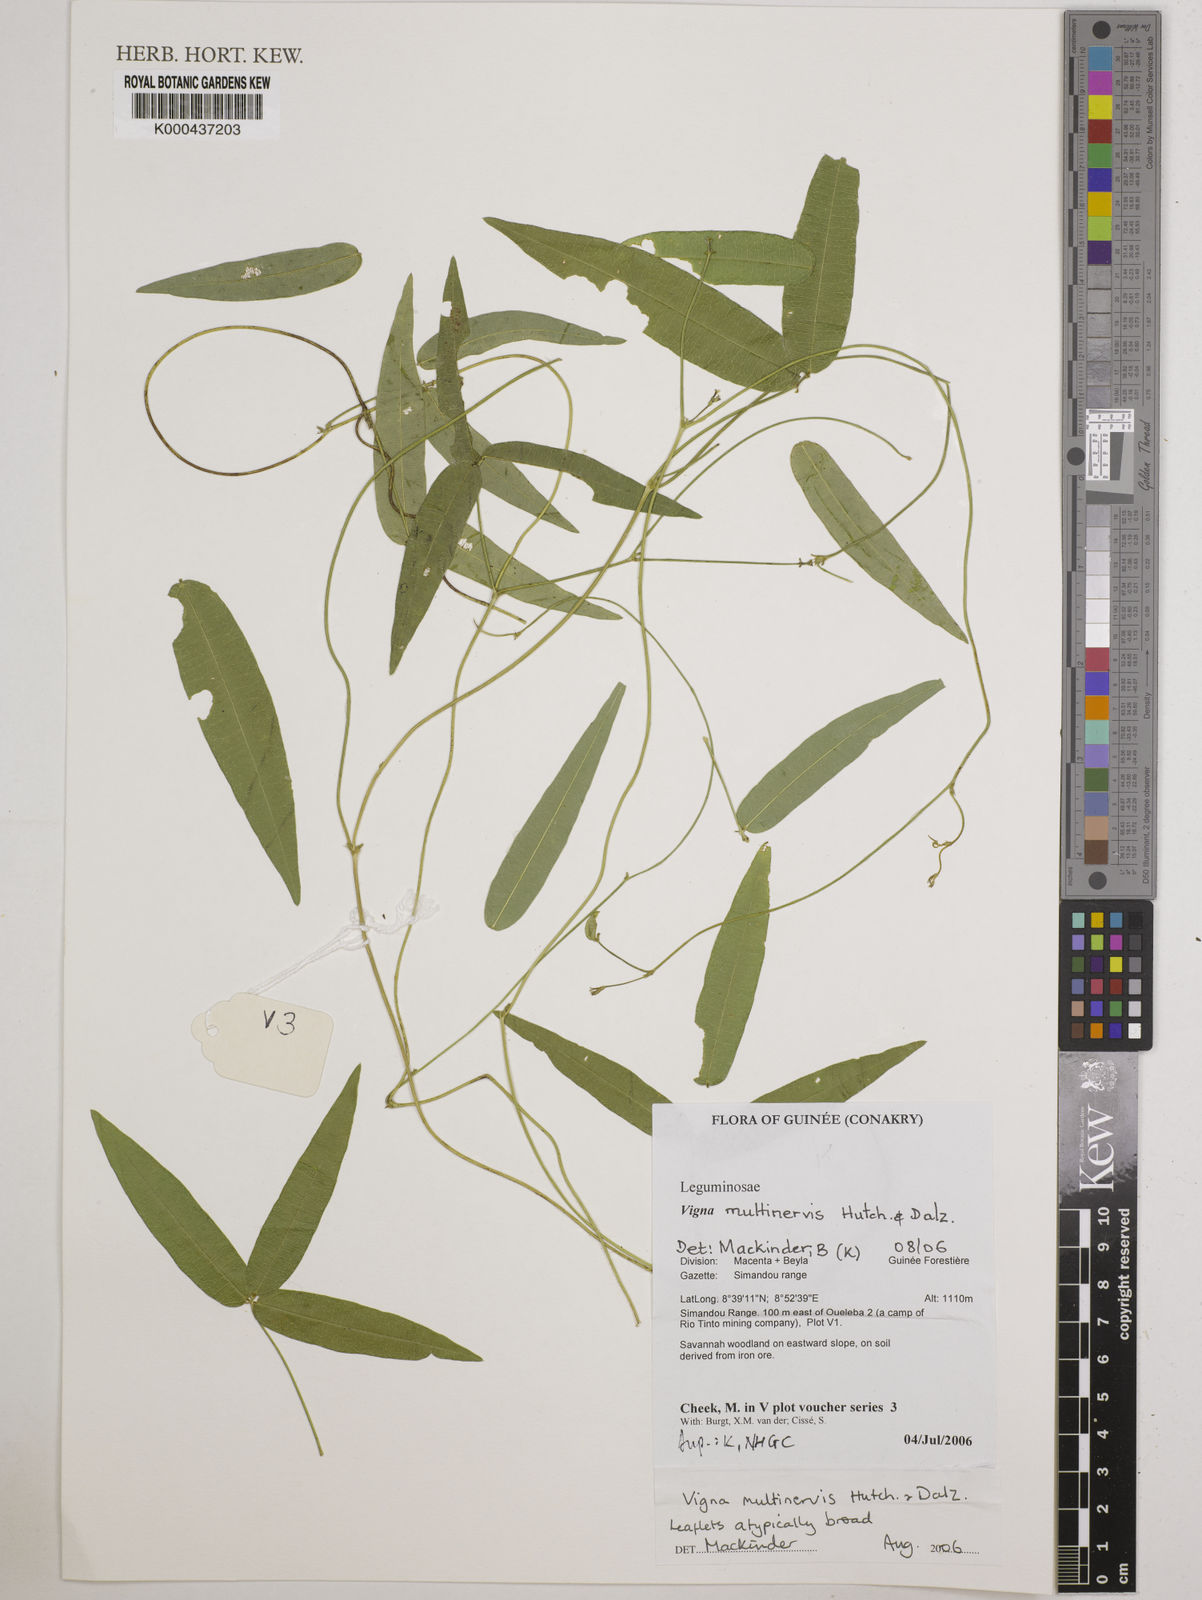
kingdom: Plantae
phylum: Tracheophyta
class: Magnoliopsida
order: Fabales
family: Fabaceae
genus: Vigna
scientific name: Vigna multinervis
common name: Fula-pulaar
